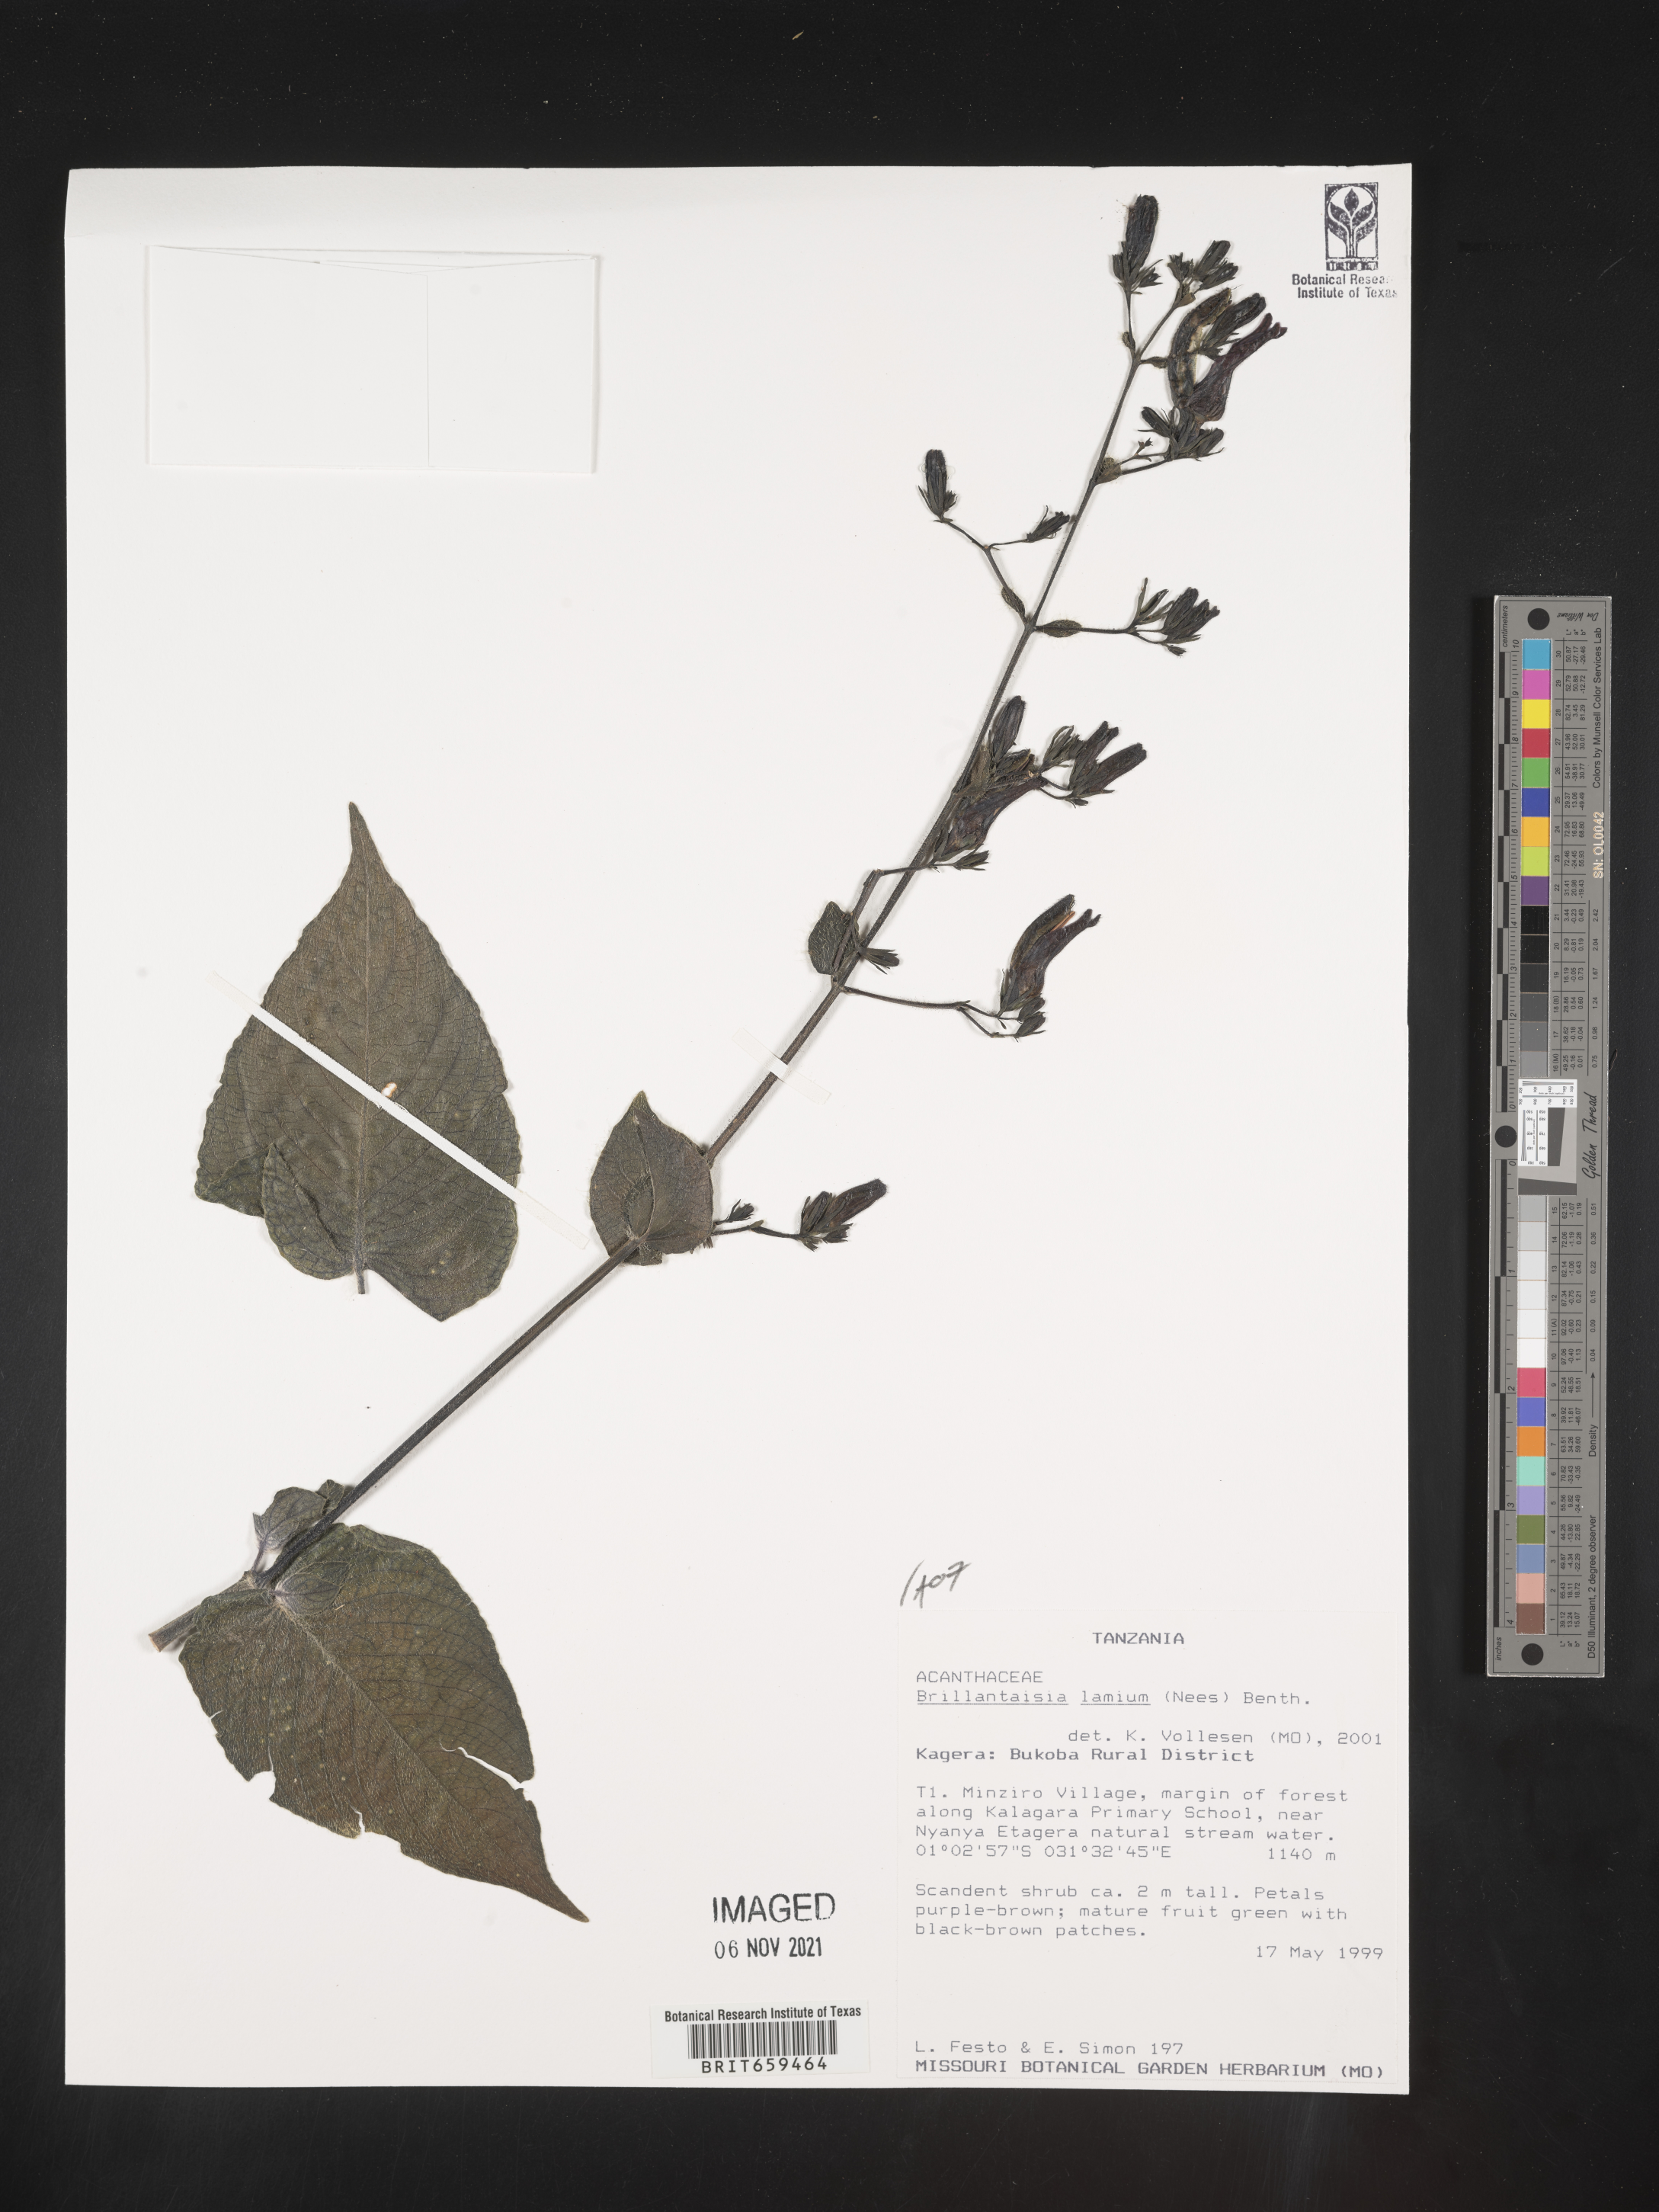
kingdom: Plantae
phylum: Tracheophyta
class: Magnoliopsida
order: Lamiales
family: Acanthaceae
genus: Brillantaisia
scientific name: Brillantaisia lamium
